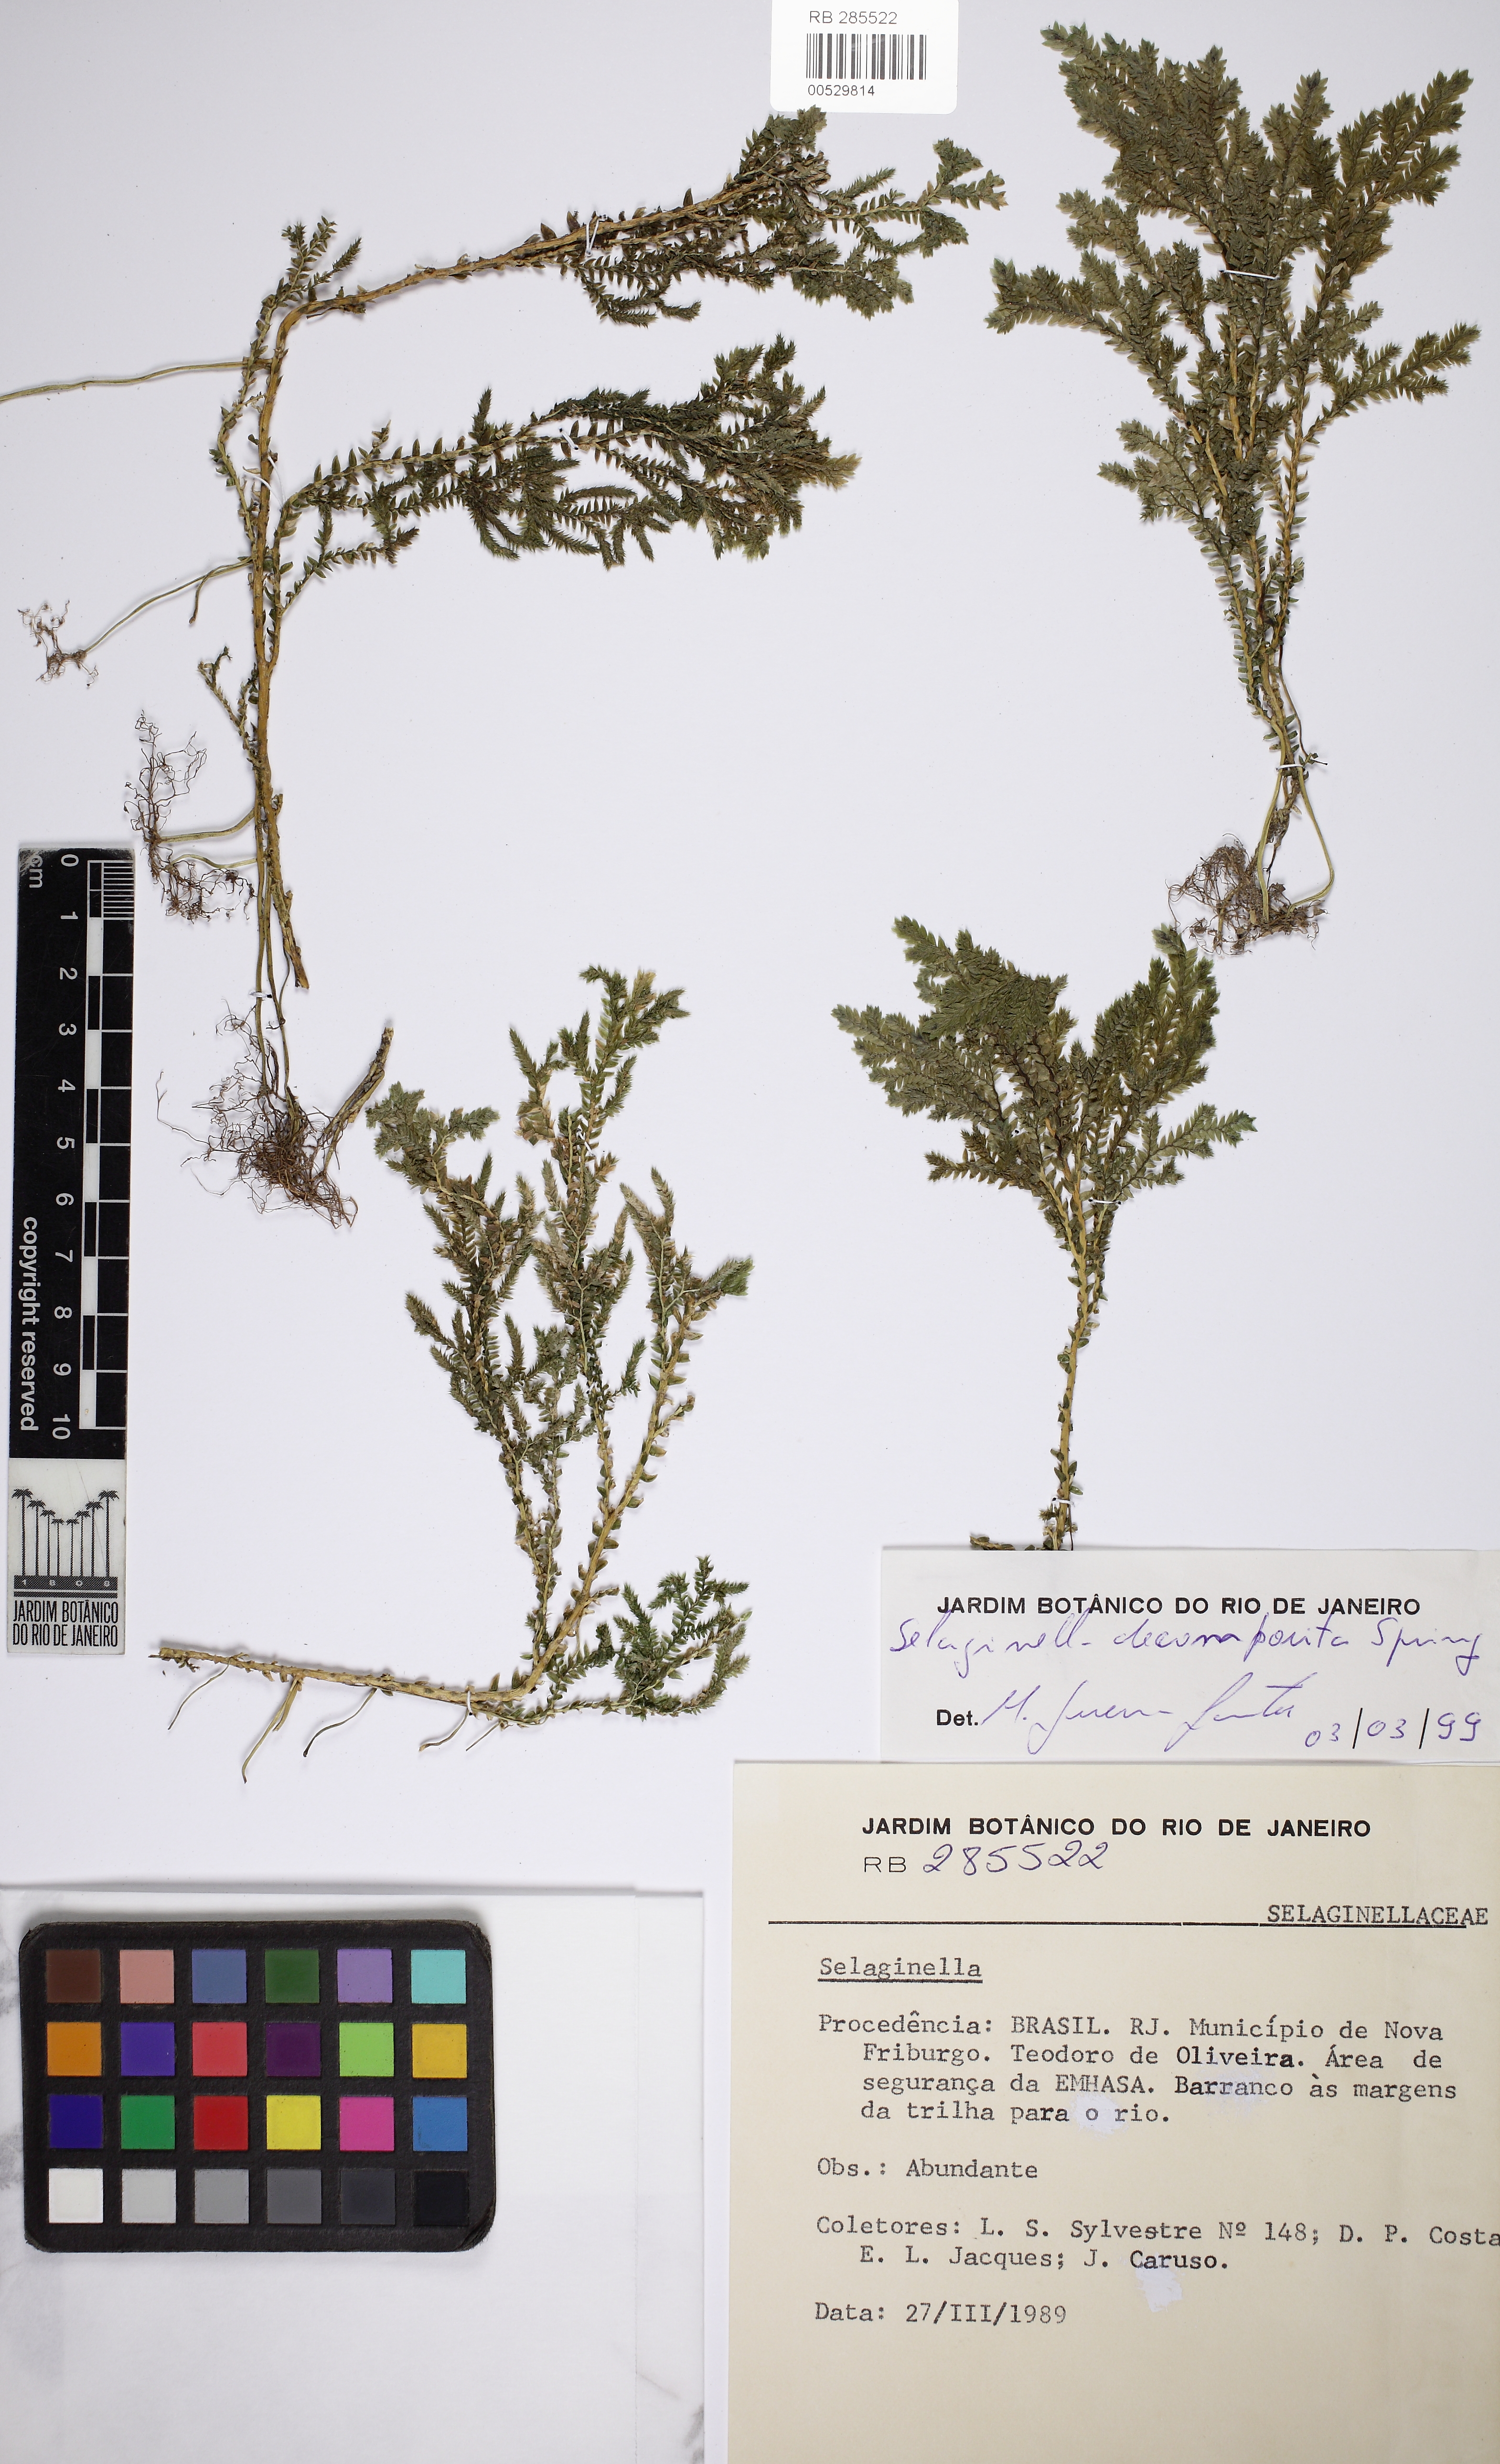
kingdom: Plantae
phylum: Tracheophyta
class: Lycopodiopsida
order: Selaginellales
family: Selaginellaceae
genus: Selaginella
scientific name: Selaginella decomposita
